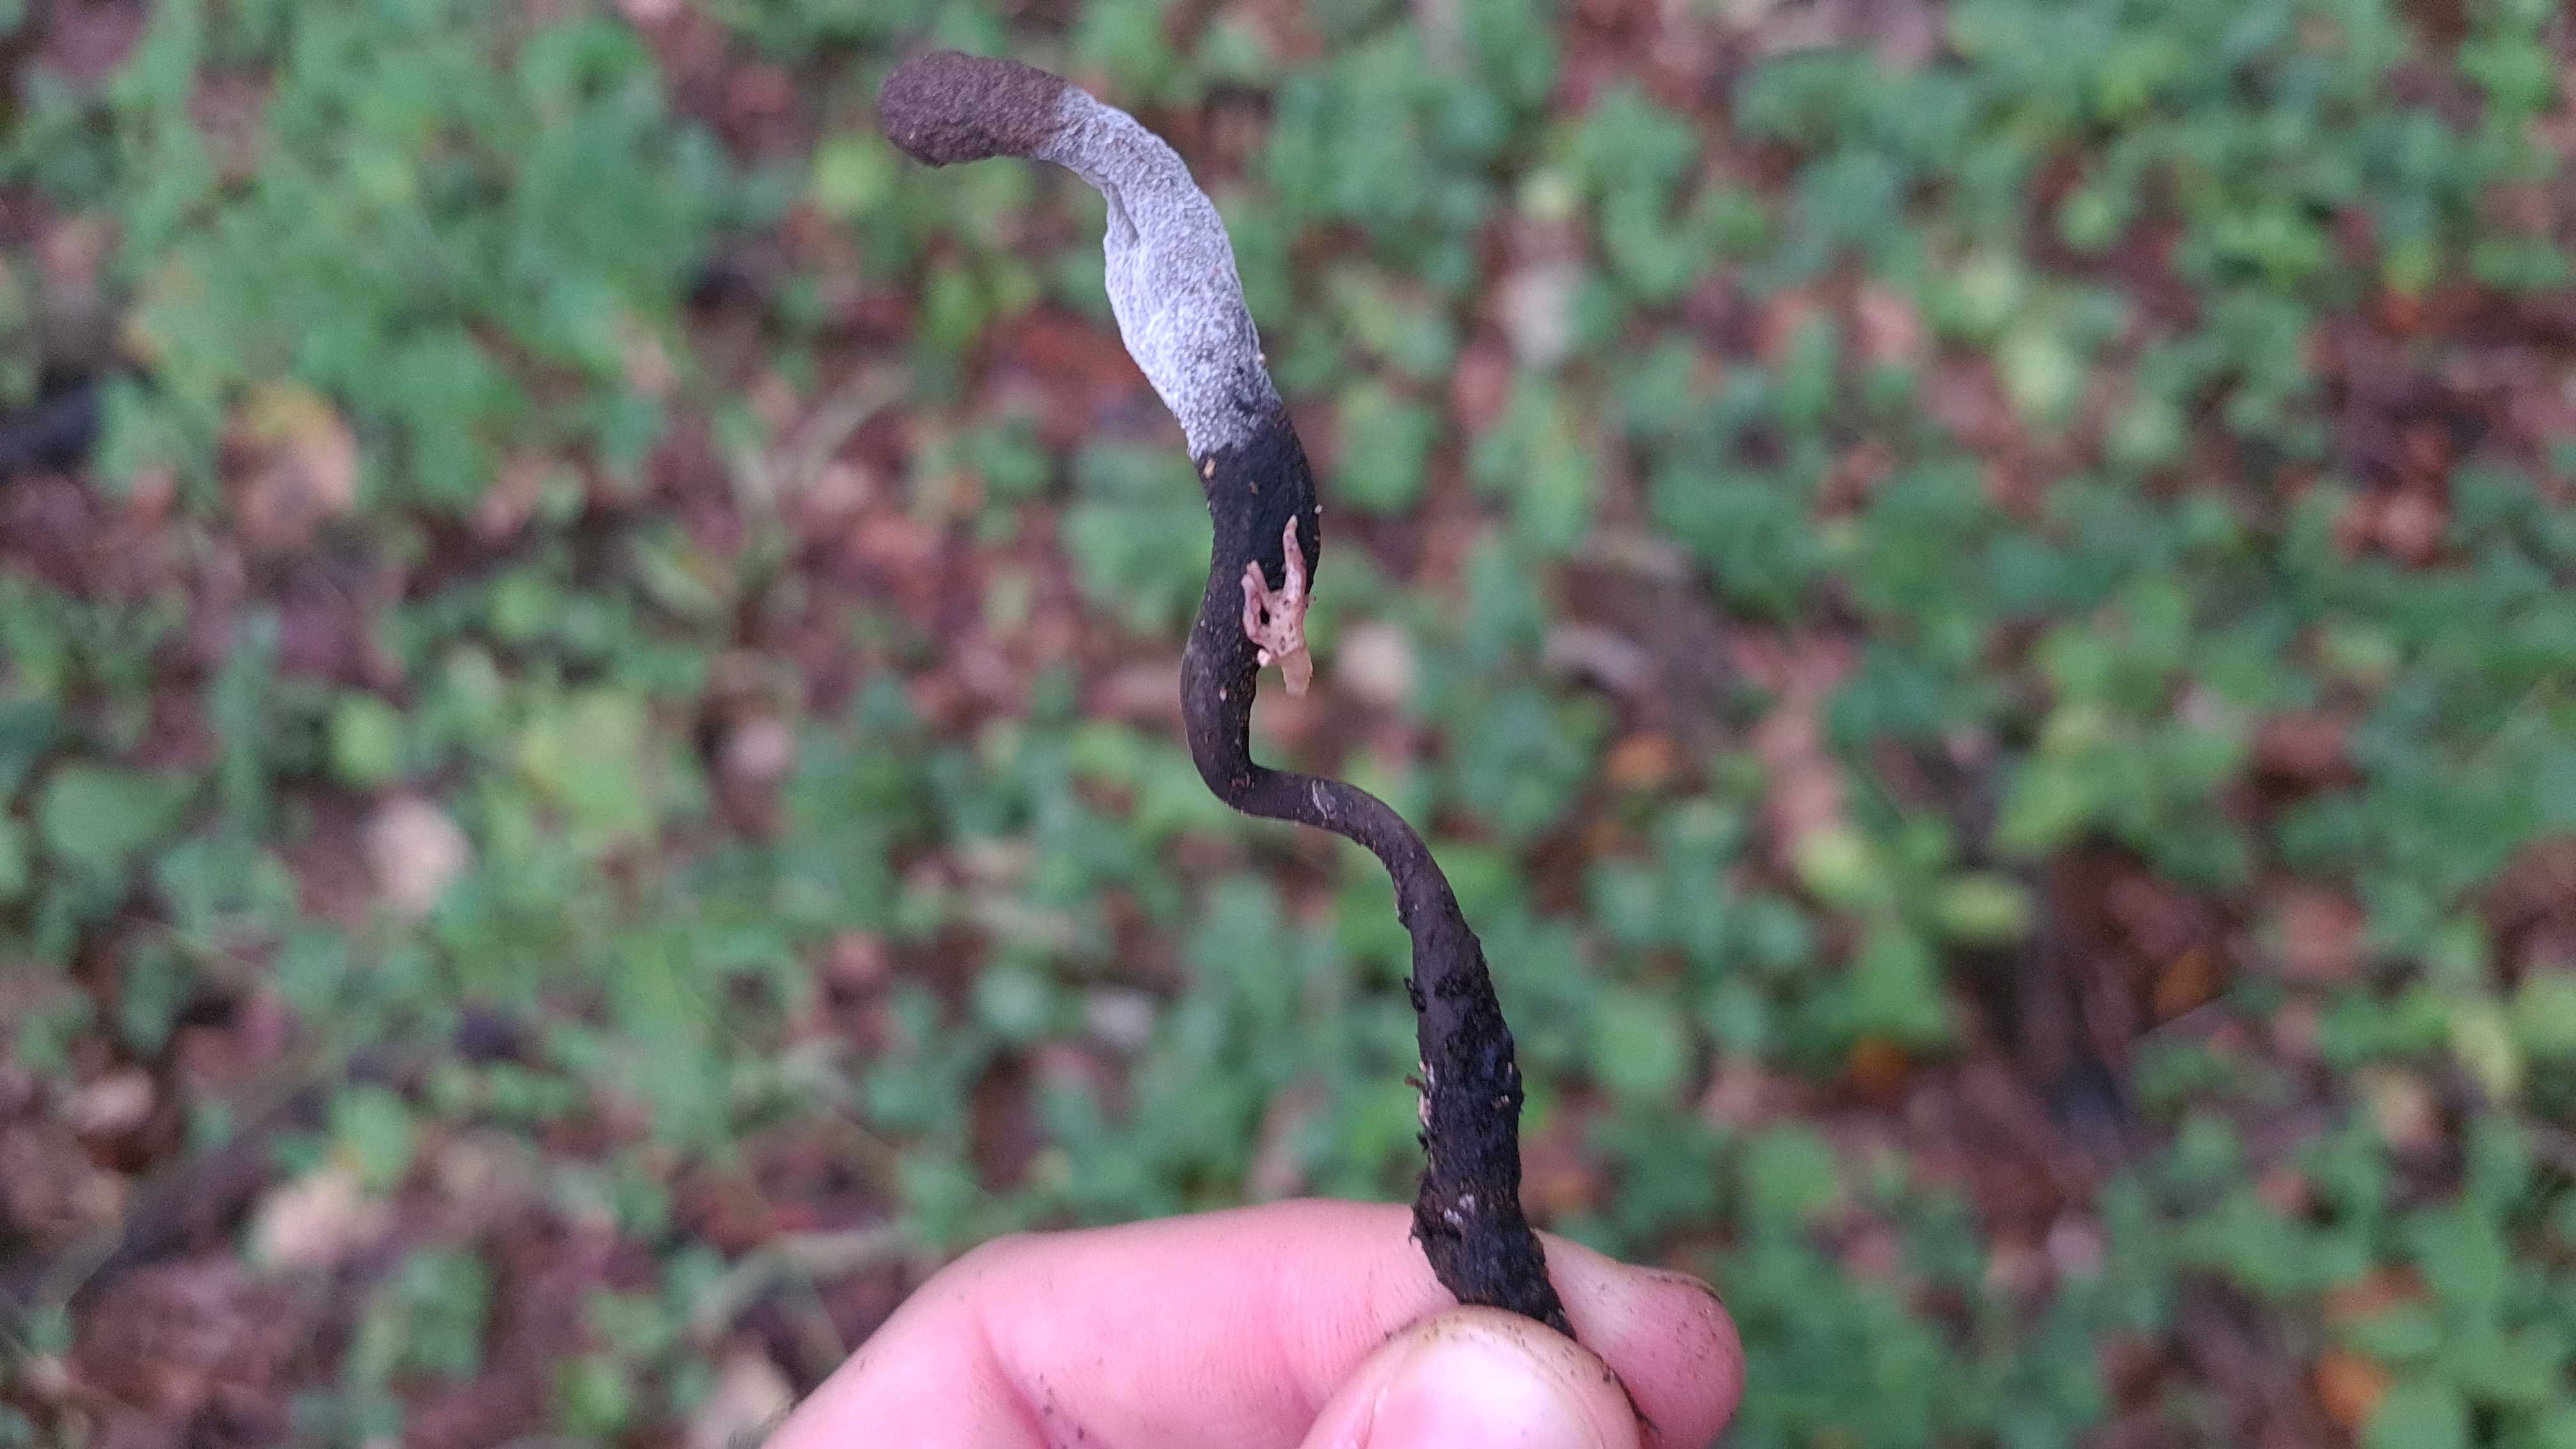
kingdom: Fungi
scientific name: Fungi
